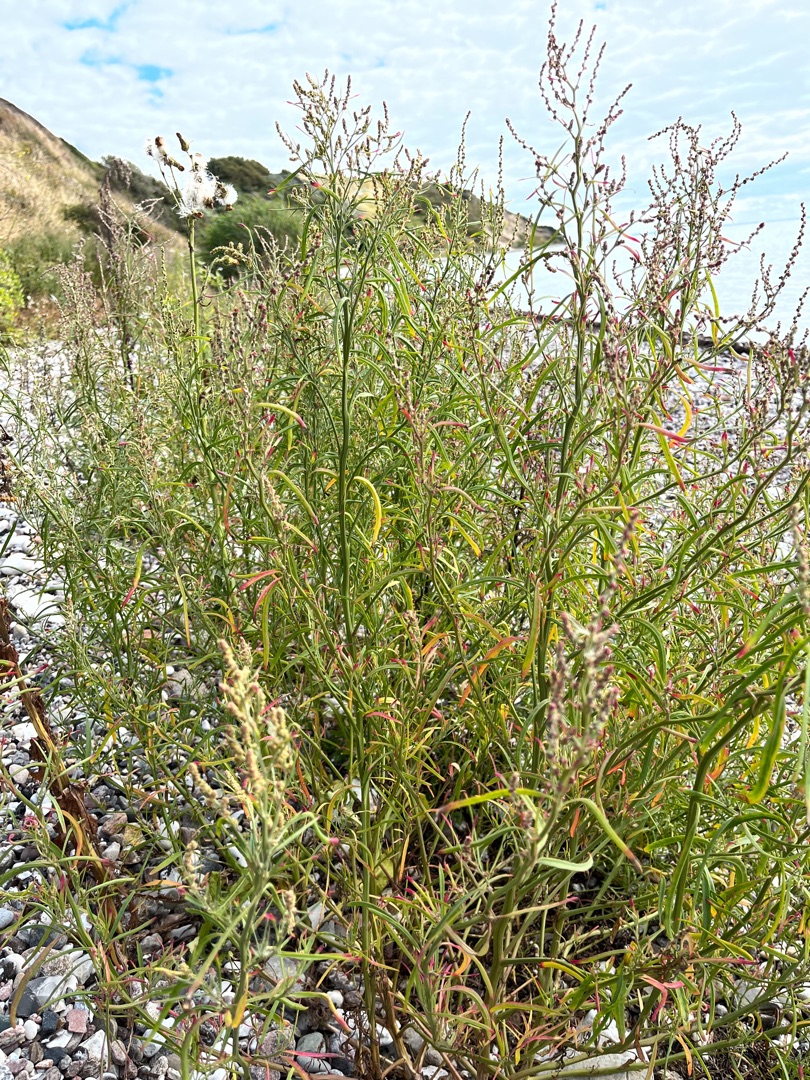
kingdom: Plantae
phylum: Tracheophyta
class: Magnoliopsida
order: Caryophyllales
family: Amaranthaceae
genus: Atriplex
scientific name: Atriplex littoralis
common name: Strand-mælde
